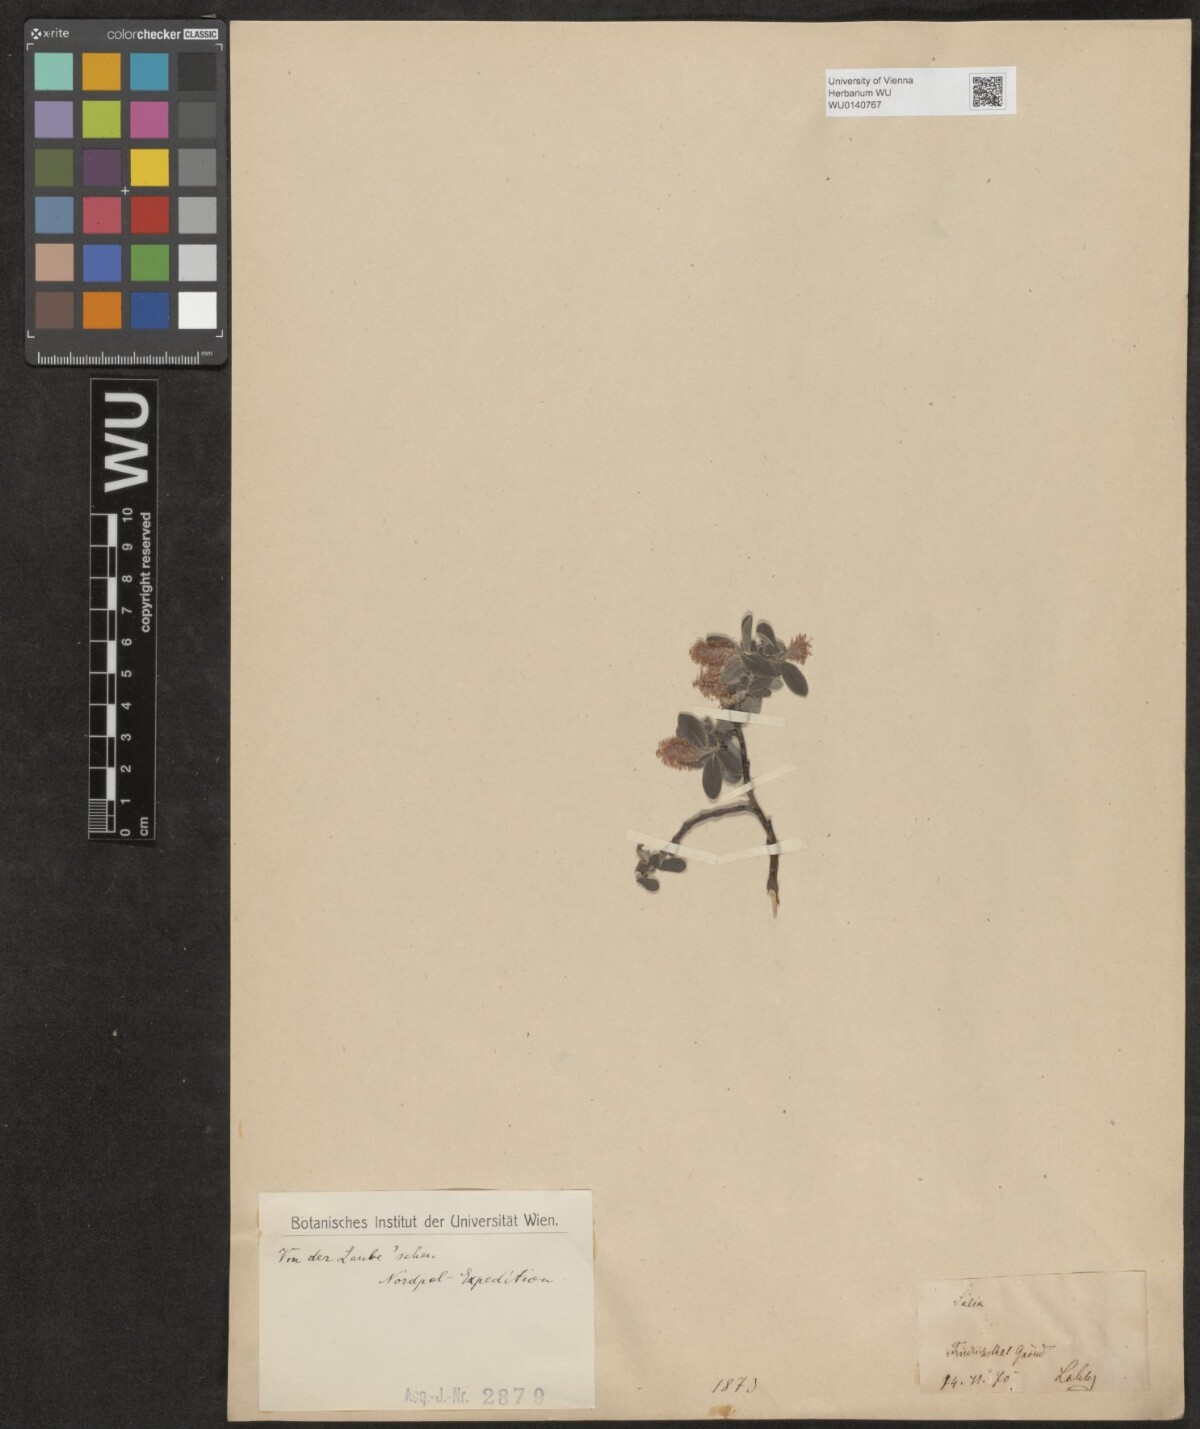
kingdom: Plantae
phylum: Tracheophyta
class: Magnoliopsida
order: Malpighiales
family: Salicaceae
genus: Salix
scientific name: Salix
